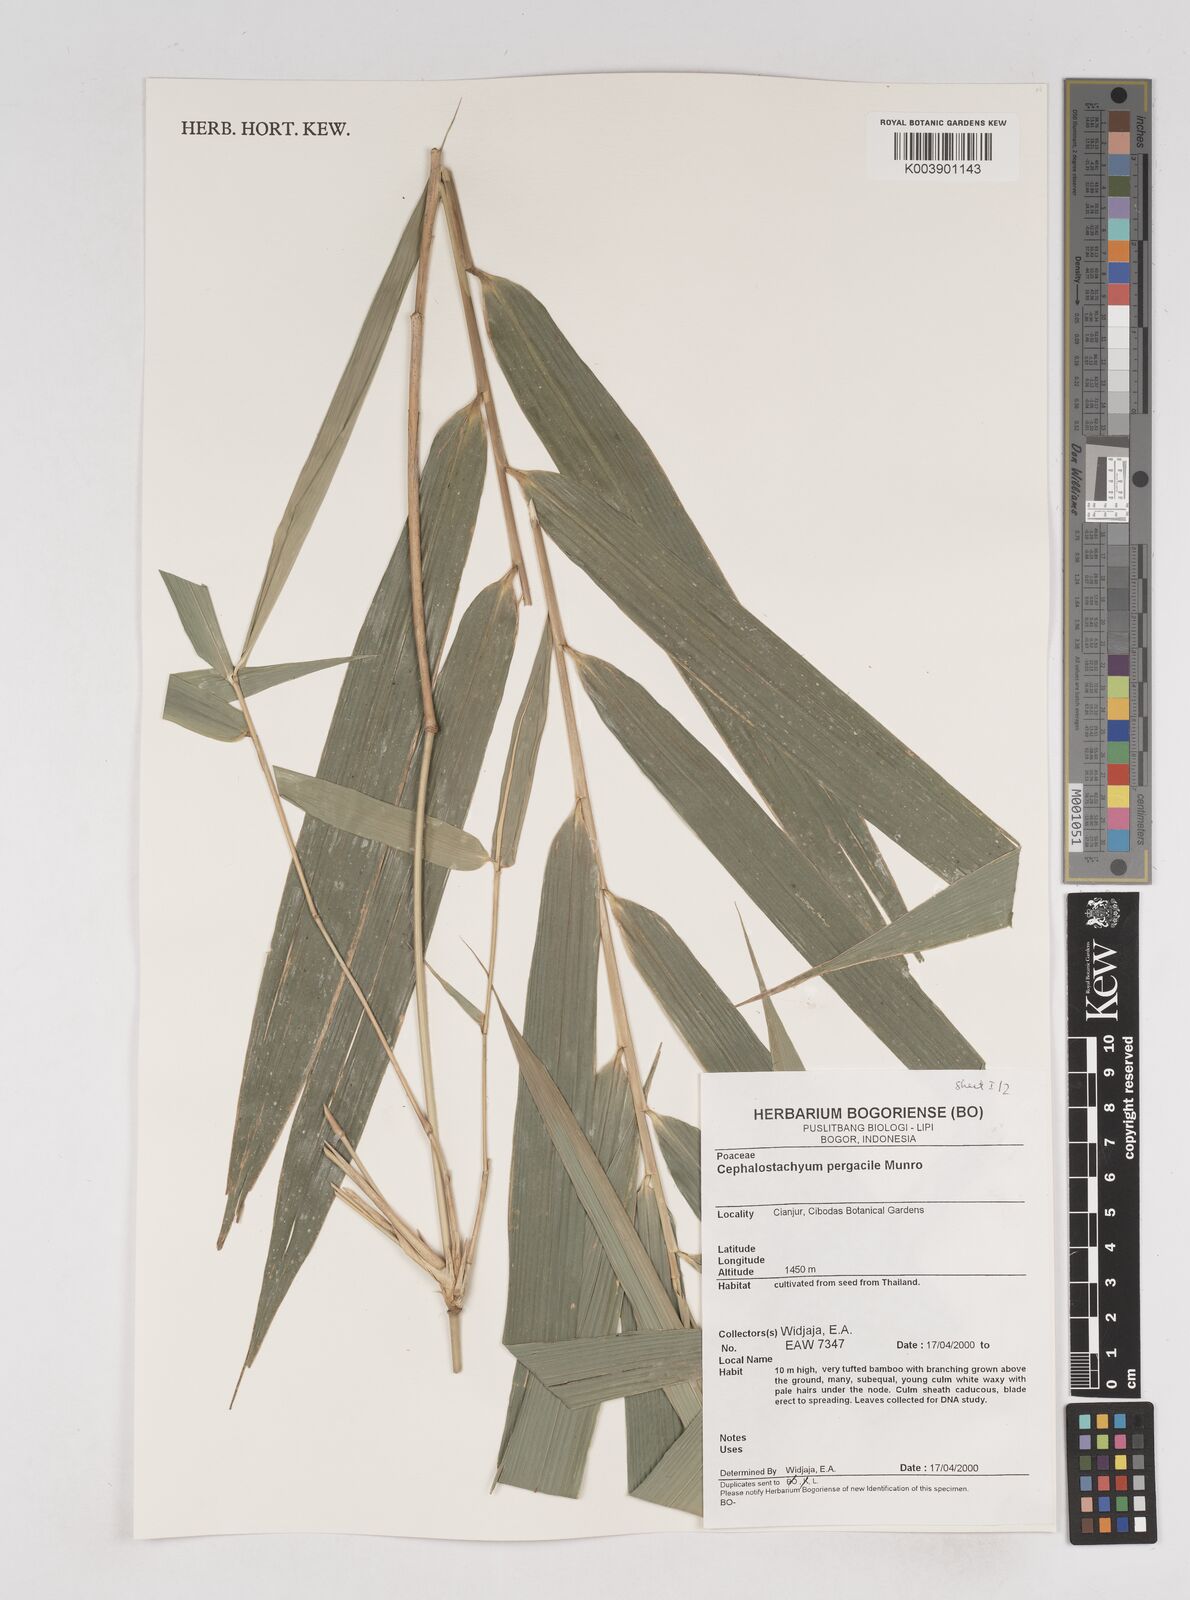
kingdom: Plantae
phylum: Tracheophyta
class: Liliopsida
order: Poales
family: Poaceae
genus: Cephalostachyum
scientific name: Cephalostachyum
